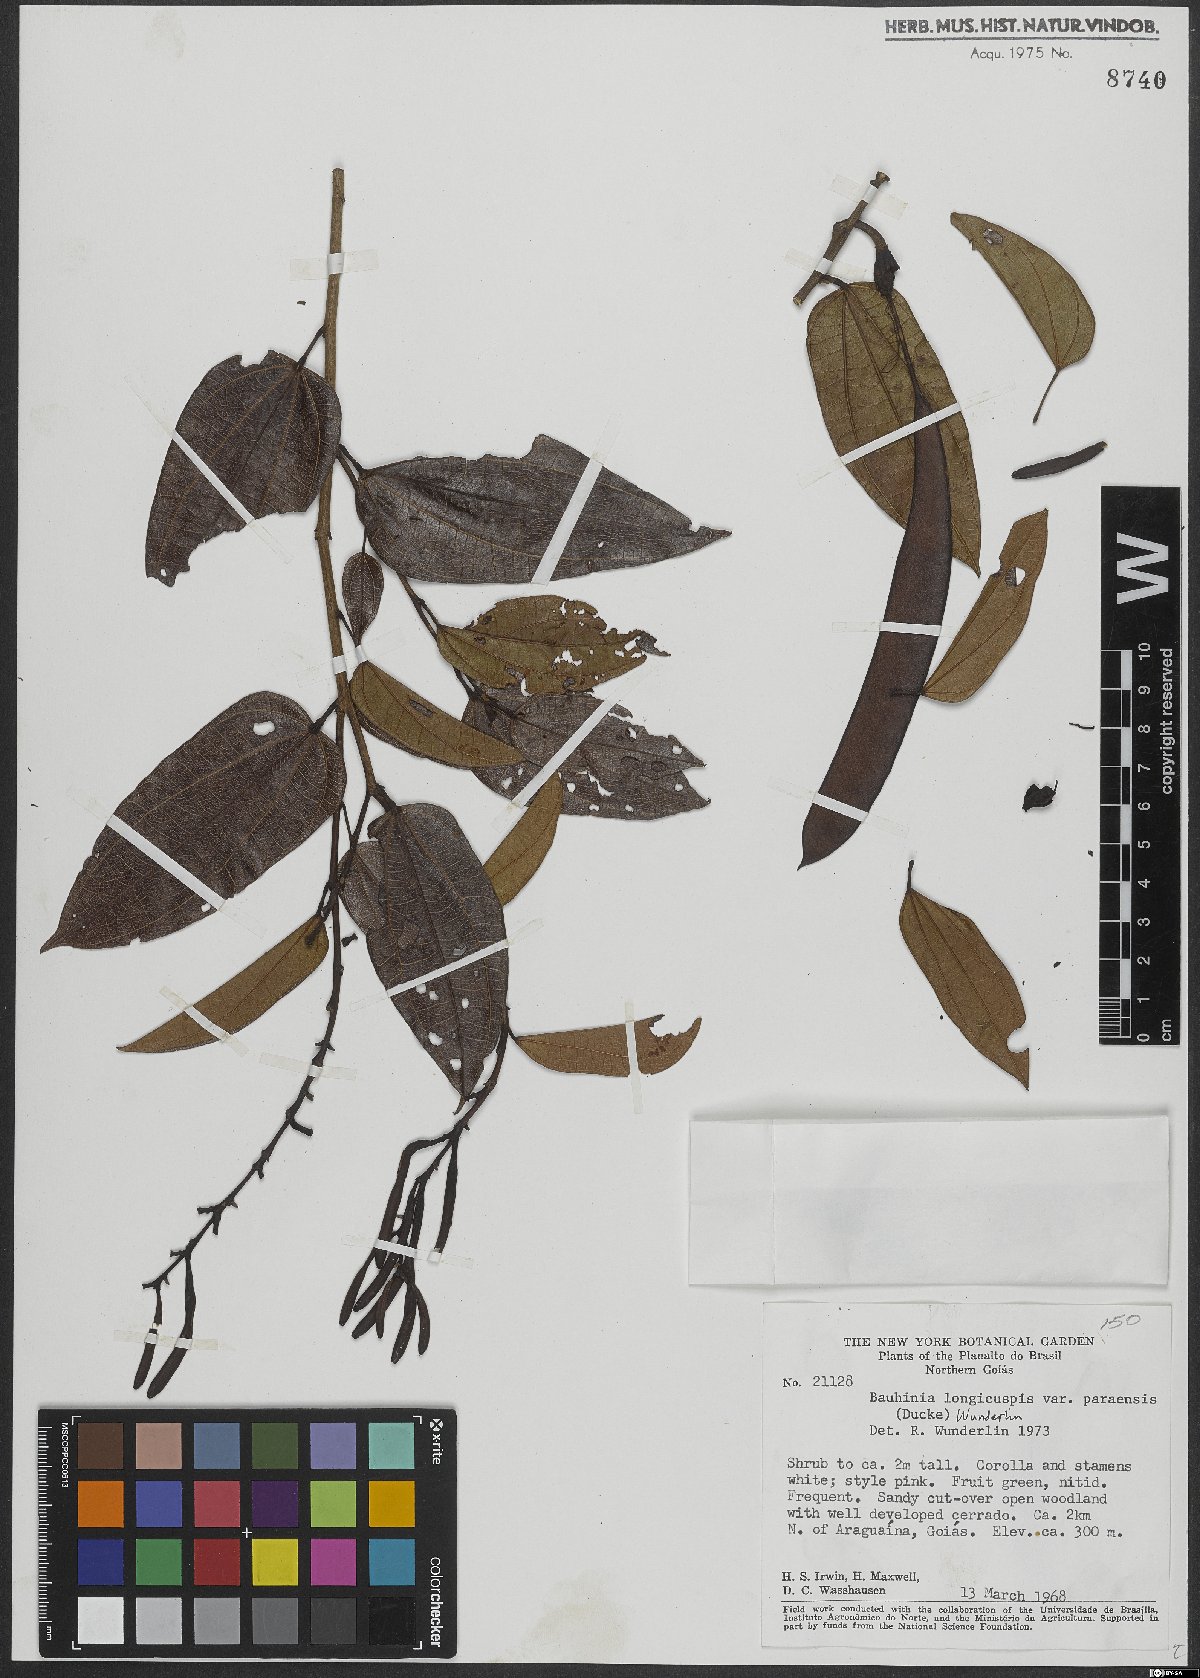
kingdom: Plantae
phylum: Tracheophyta
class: Magnoliopsida
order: Fabales
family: Fabaceae
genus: Bauhinia
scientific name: Bauhinia longicuspis
